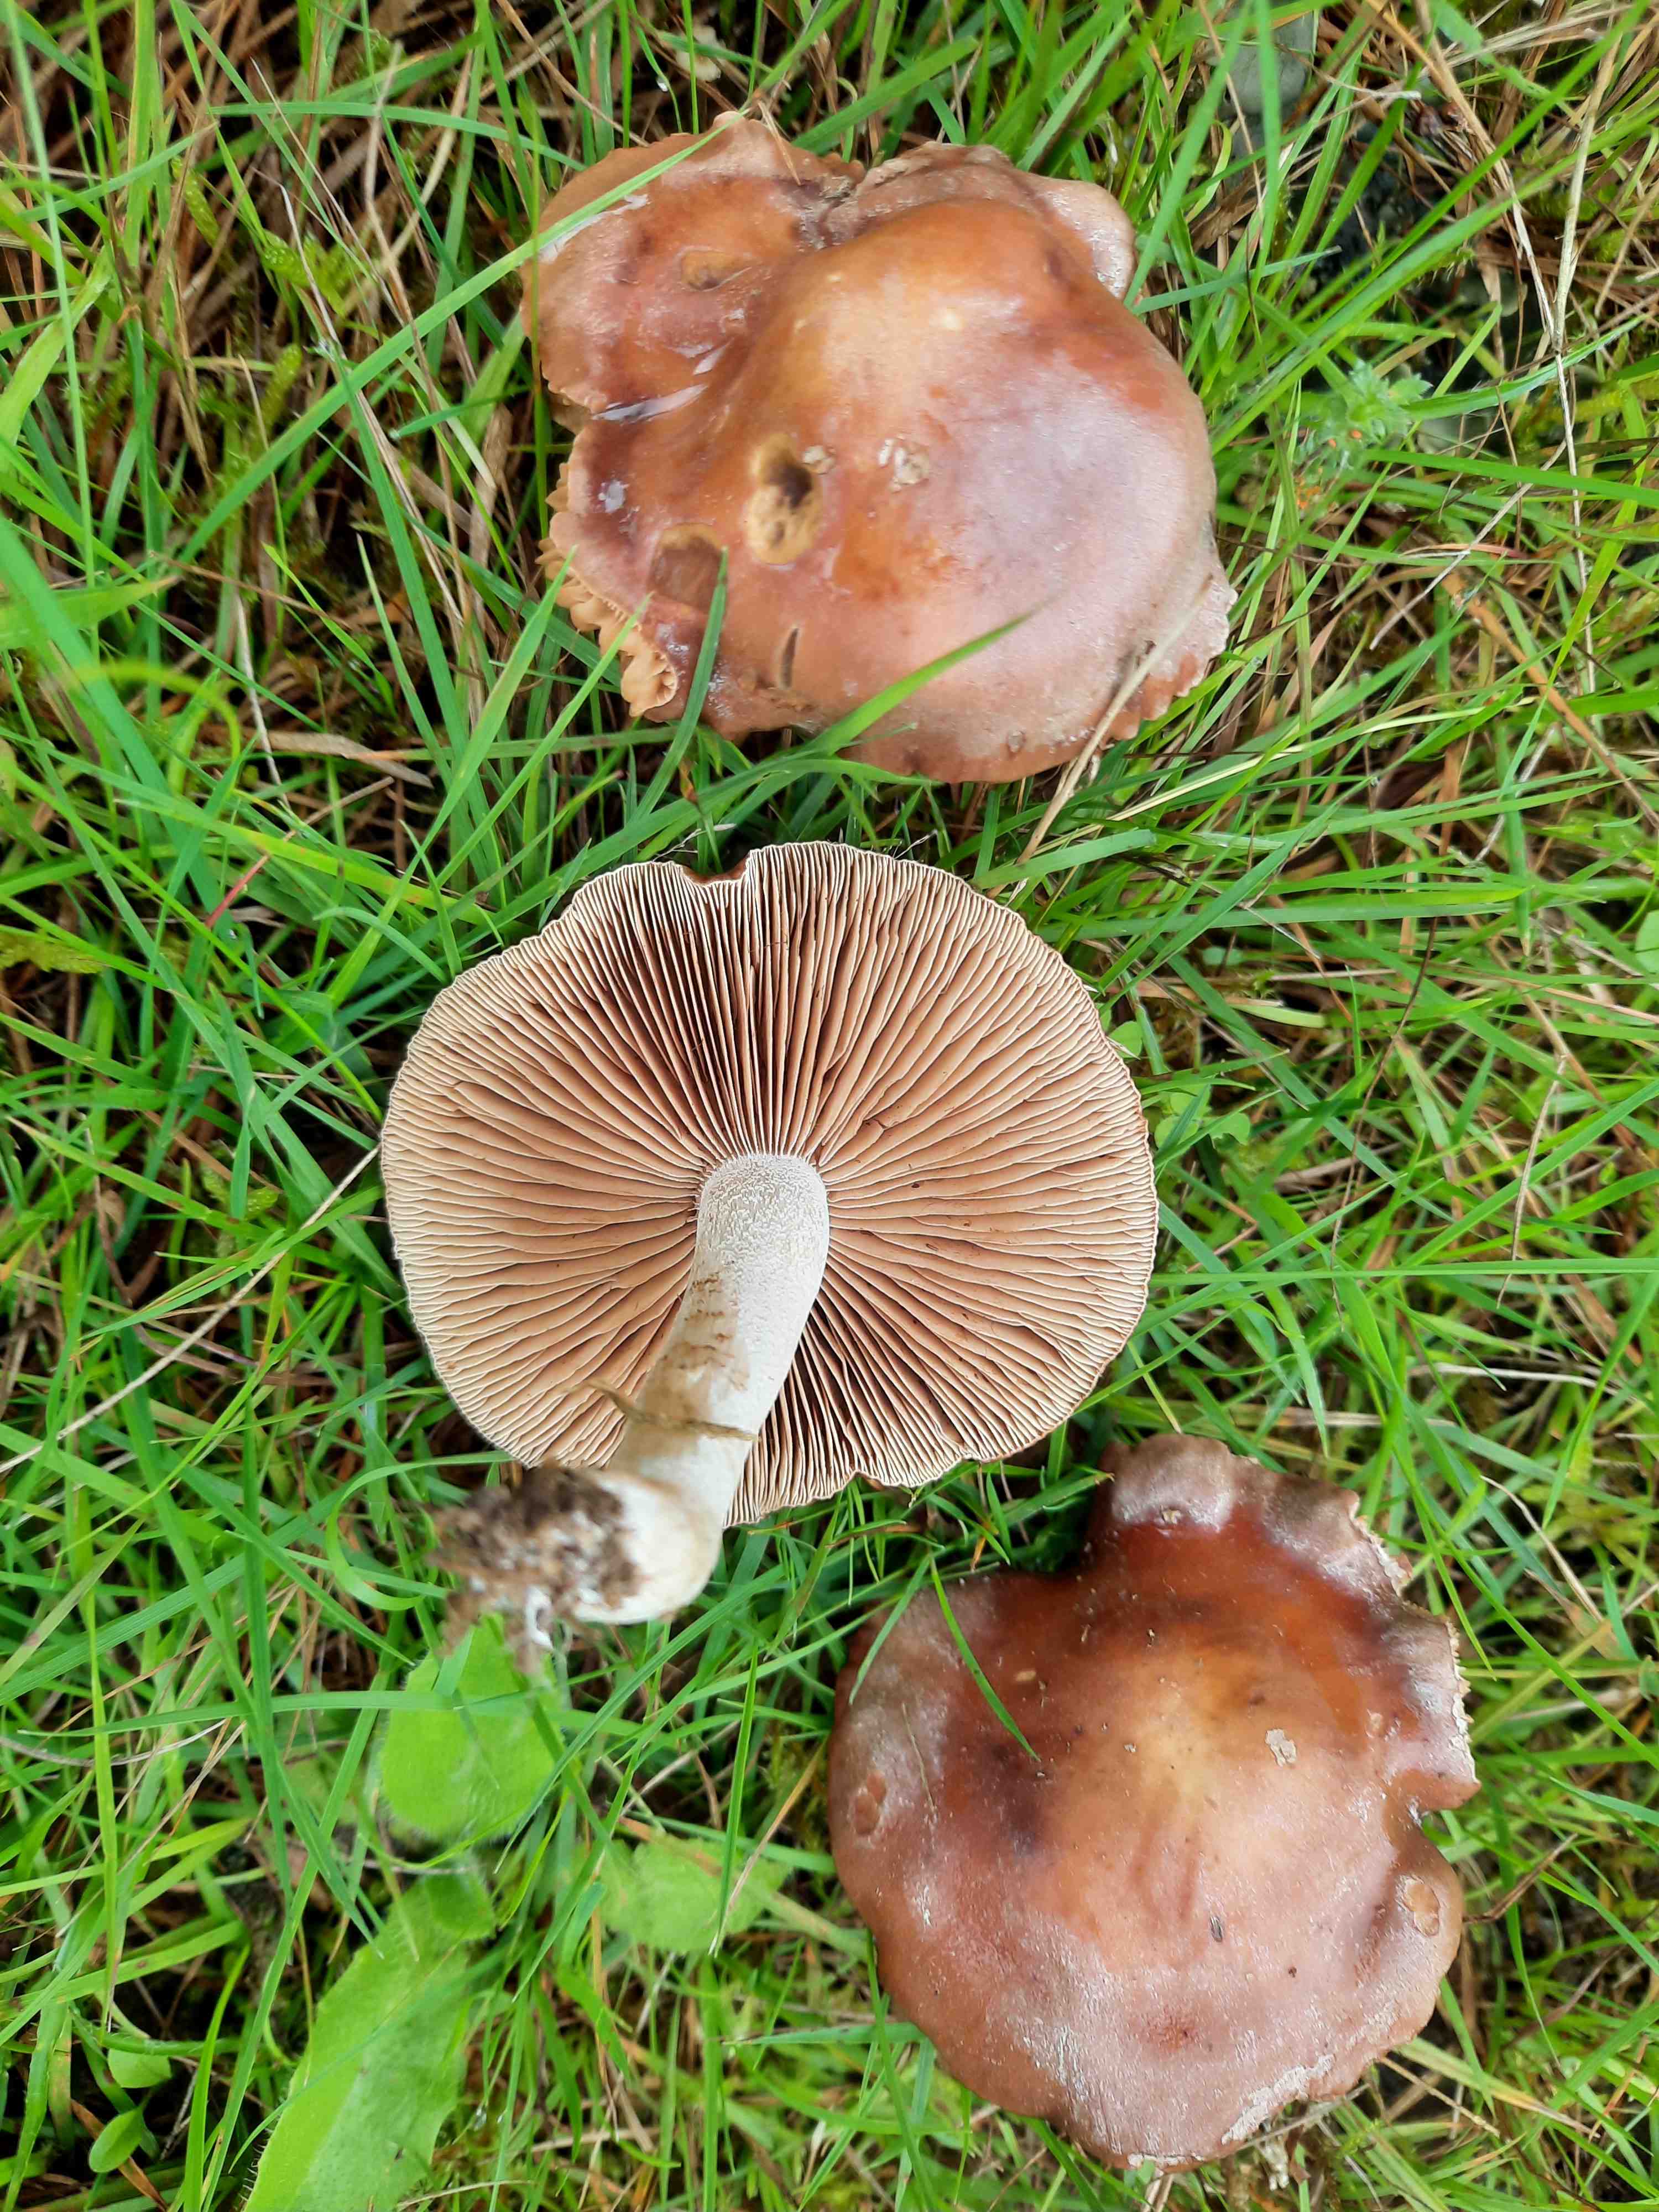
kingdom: Fungi
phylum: Basidiomycota
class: Agaricomycetes
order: Agaricales
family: Hymenogastraceae
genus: Hebeloma
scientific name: Hebeloma theobrominum
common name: rødbrun tåreblad
